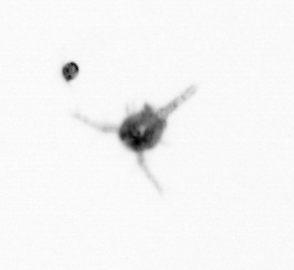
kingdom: Animalia
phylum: Arthropoda
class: Copepoda
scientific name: Copepoda
